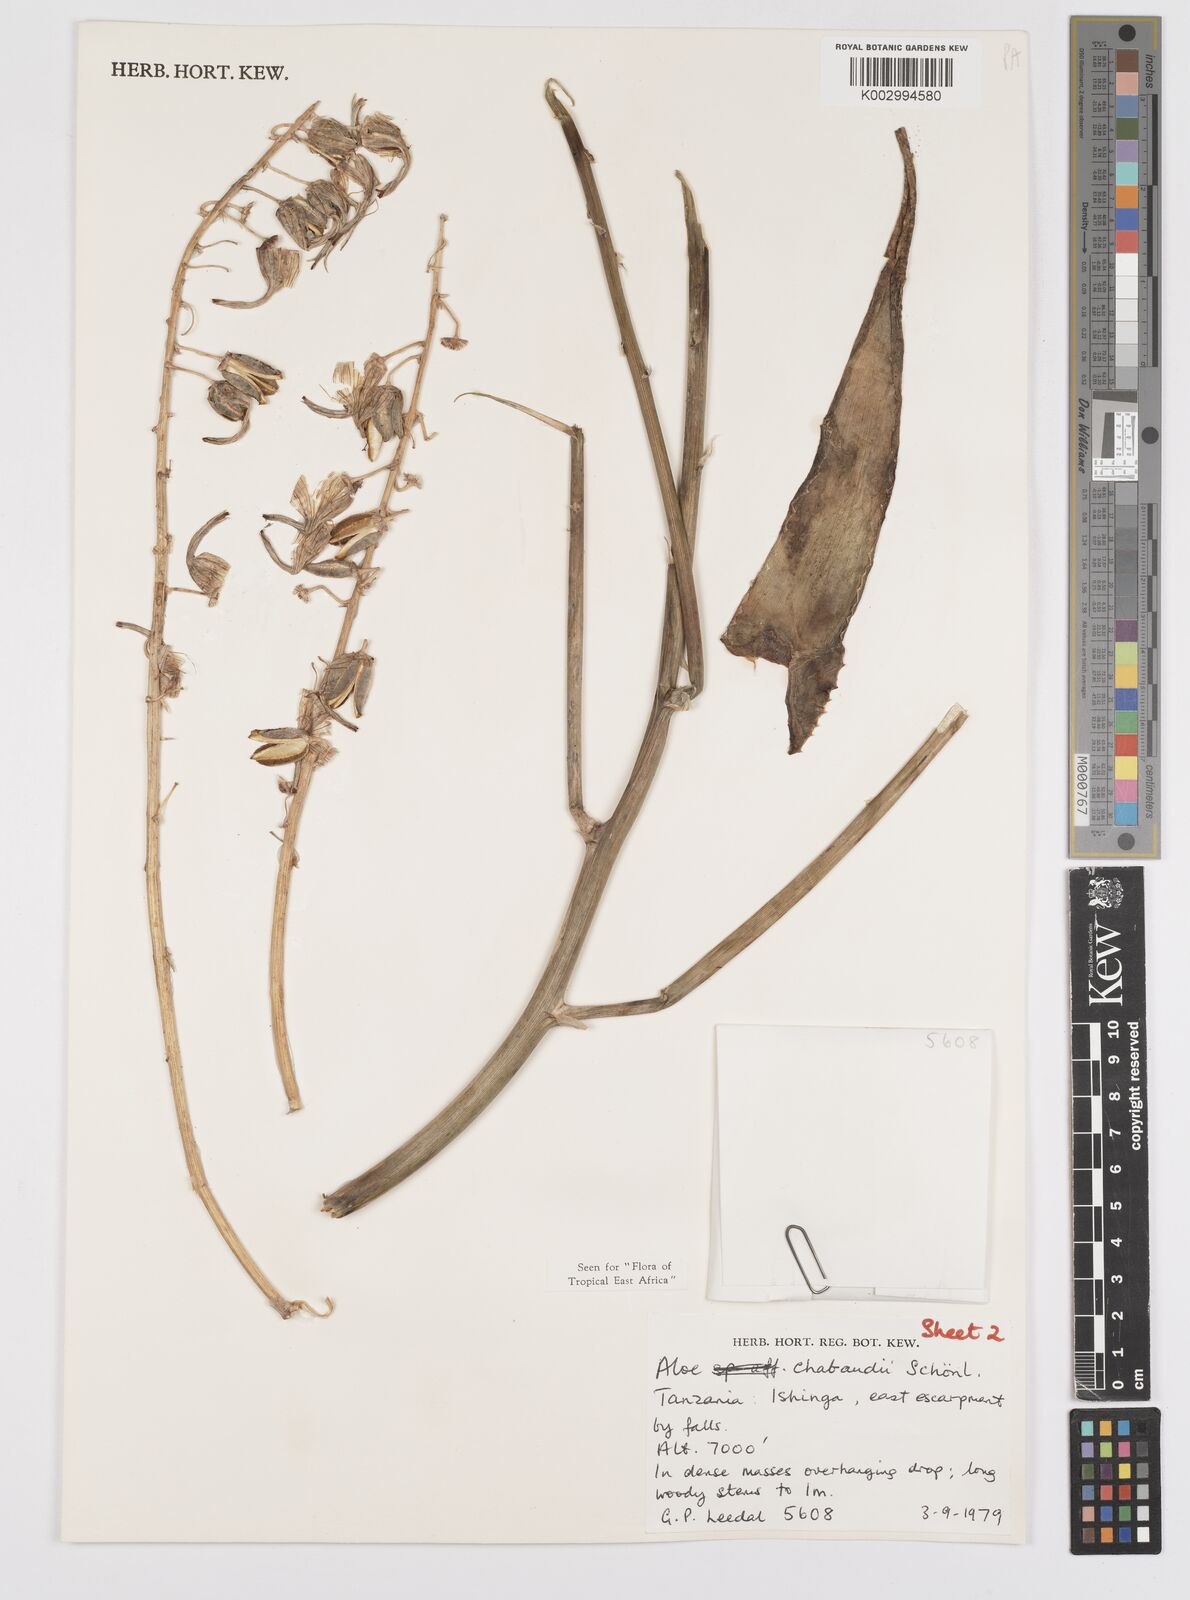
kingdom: Plantae
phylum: Tracheophyta
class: Liliopsida
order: Asparagales
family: Asphodelaceae
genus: Aloe
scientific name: Aloe chabaudii
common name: Chabaud's aloe
